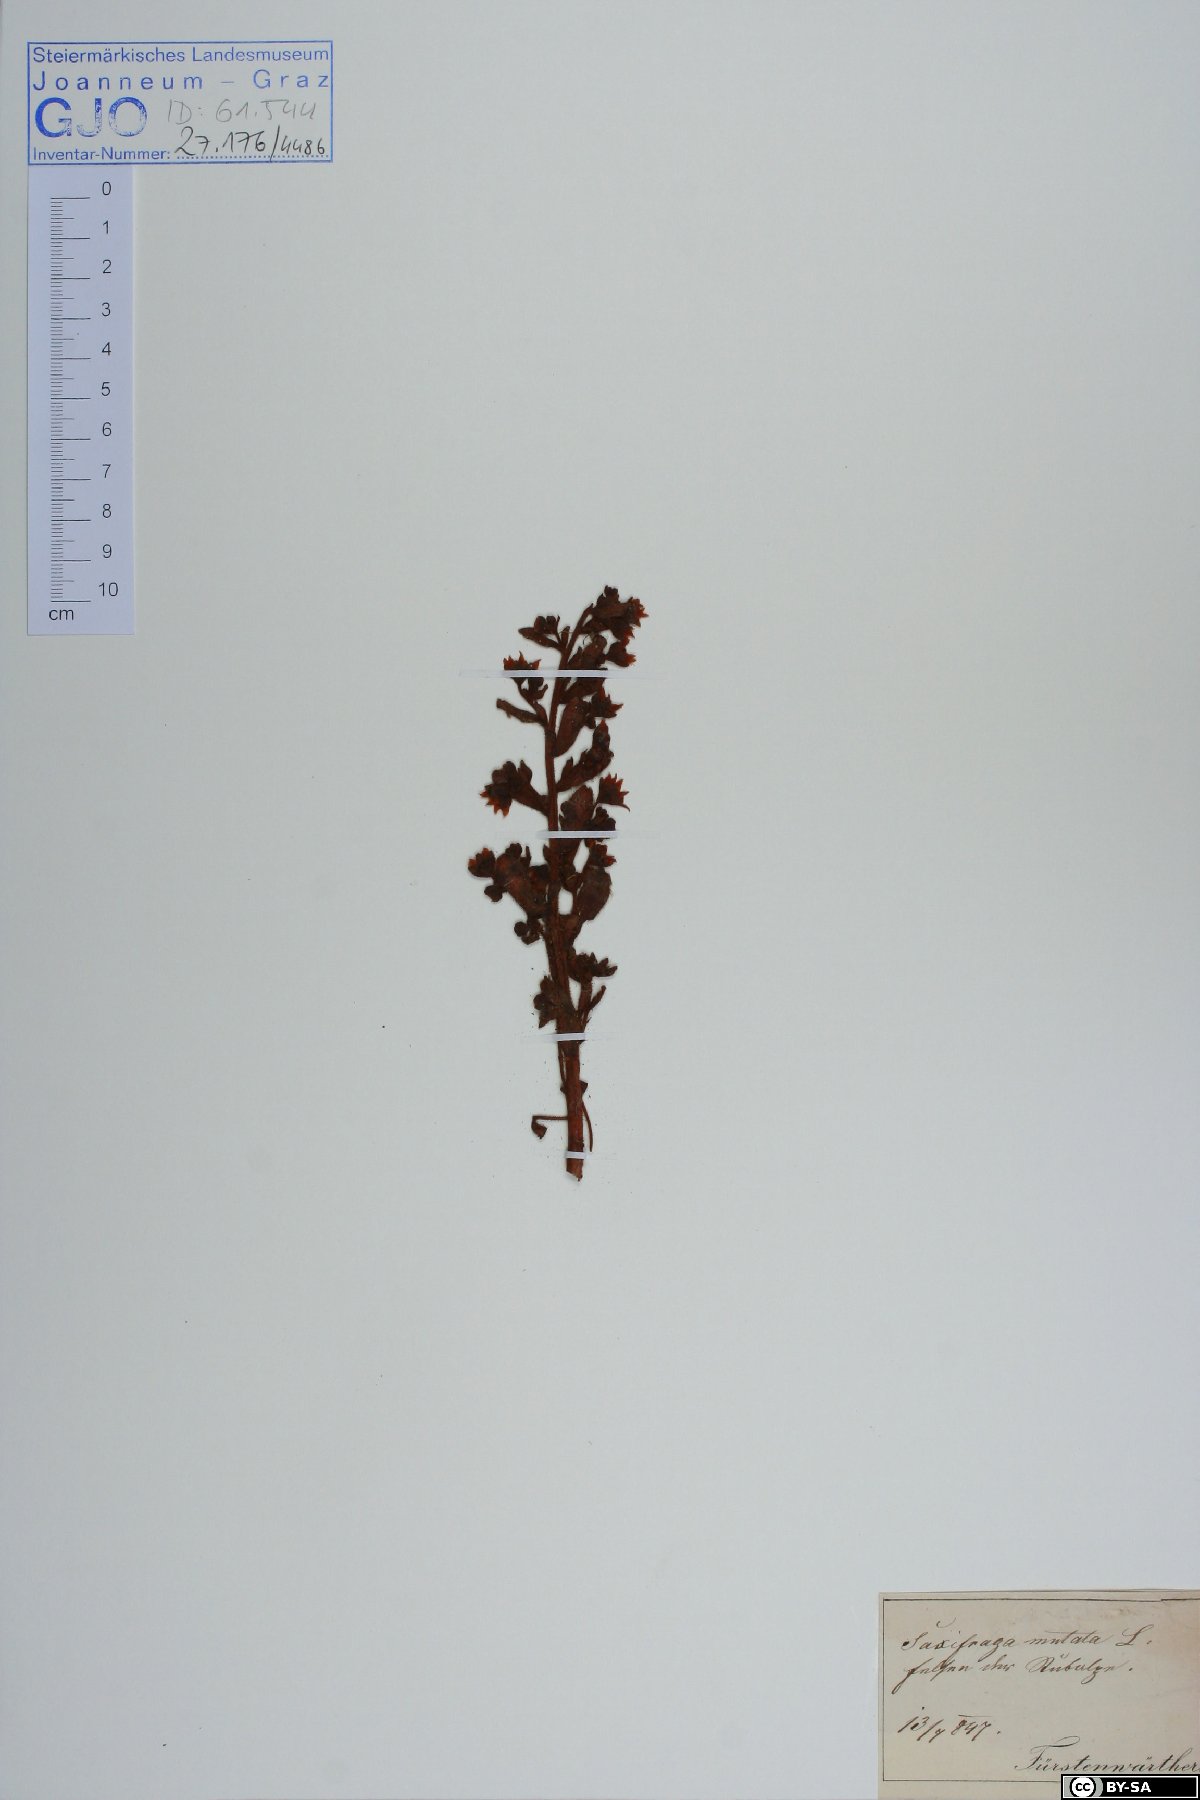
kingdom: Plantae
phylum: Tracheophyta
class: Magnoliopsida
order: Saxifragales
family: Saxifragaceae
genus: Saxifraga
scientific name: Saxifraga mutata
